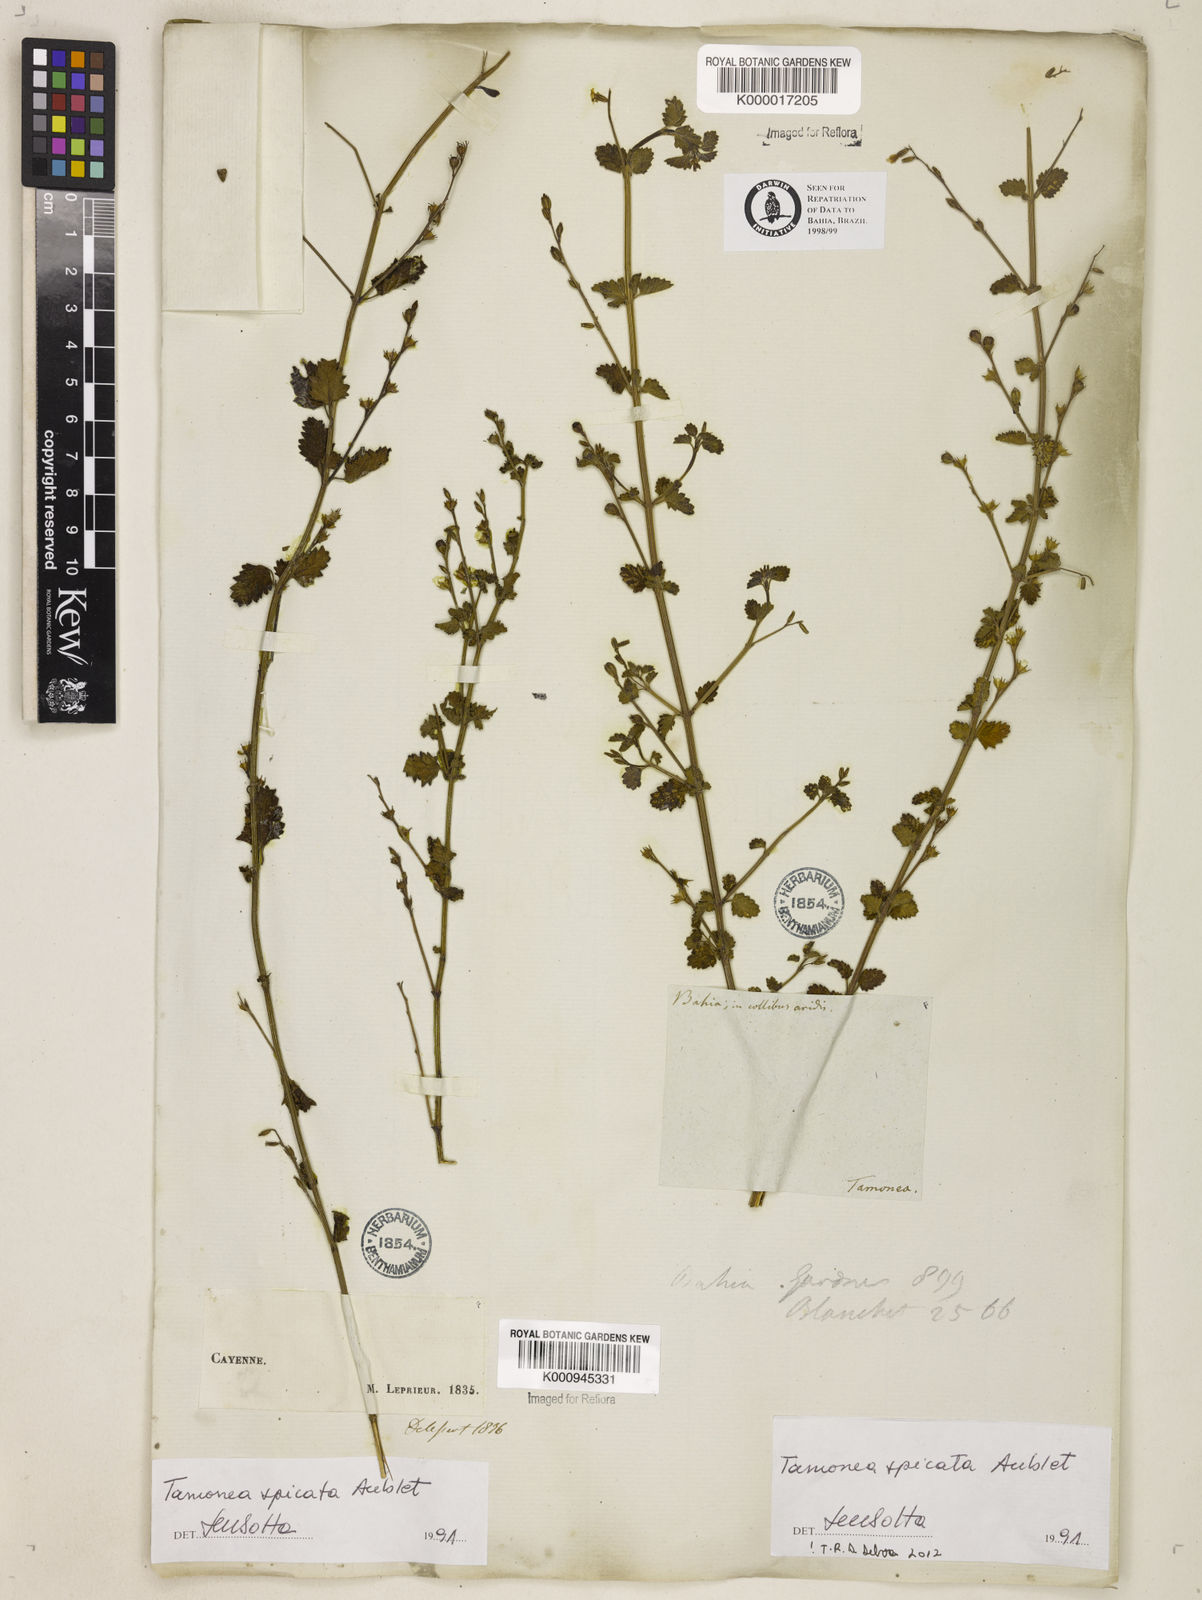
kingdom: Plantae
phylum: Tracheophyta
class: Magnoliopsida
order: Lamiales
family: Verbenaceae
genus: Tamonea
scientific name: Tamonea spicata
